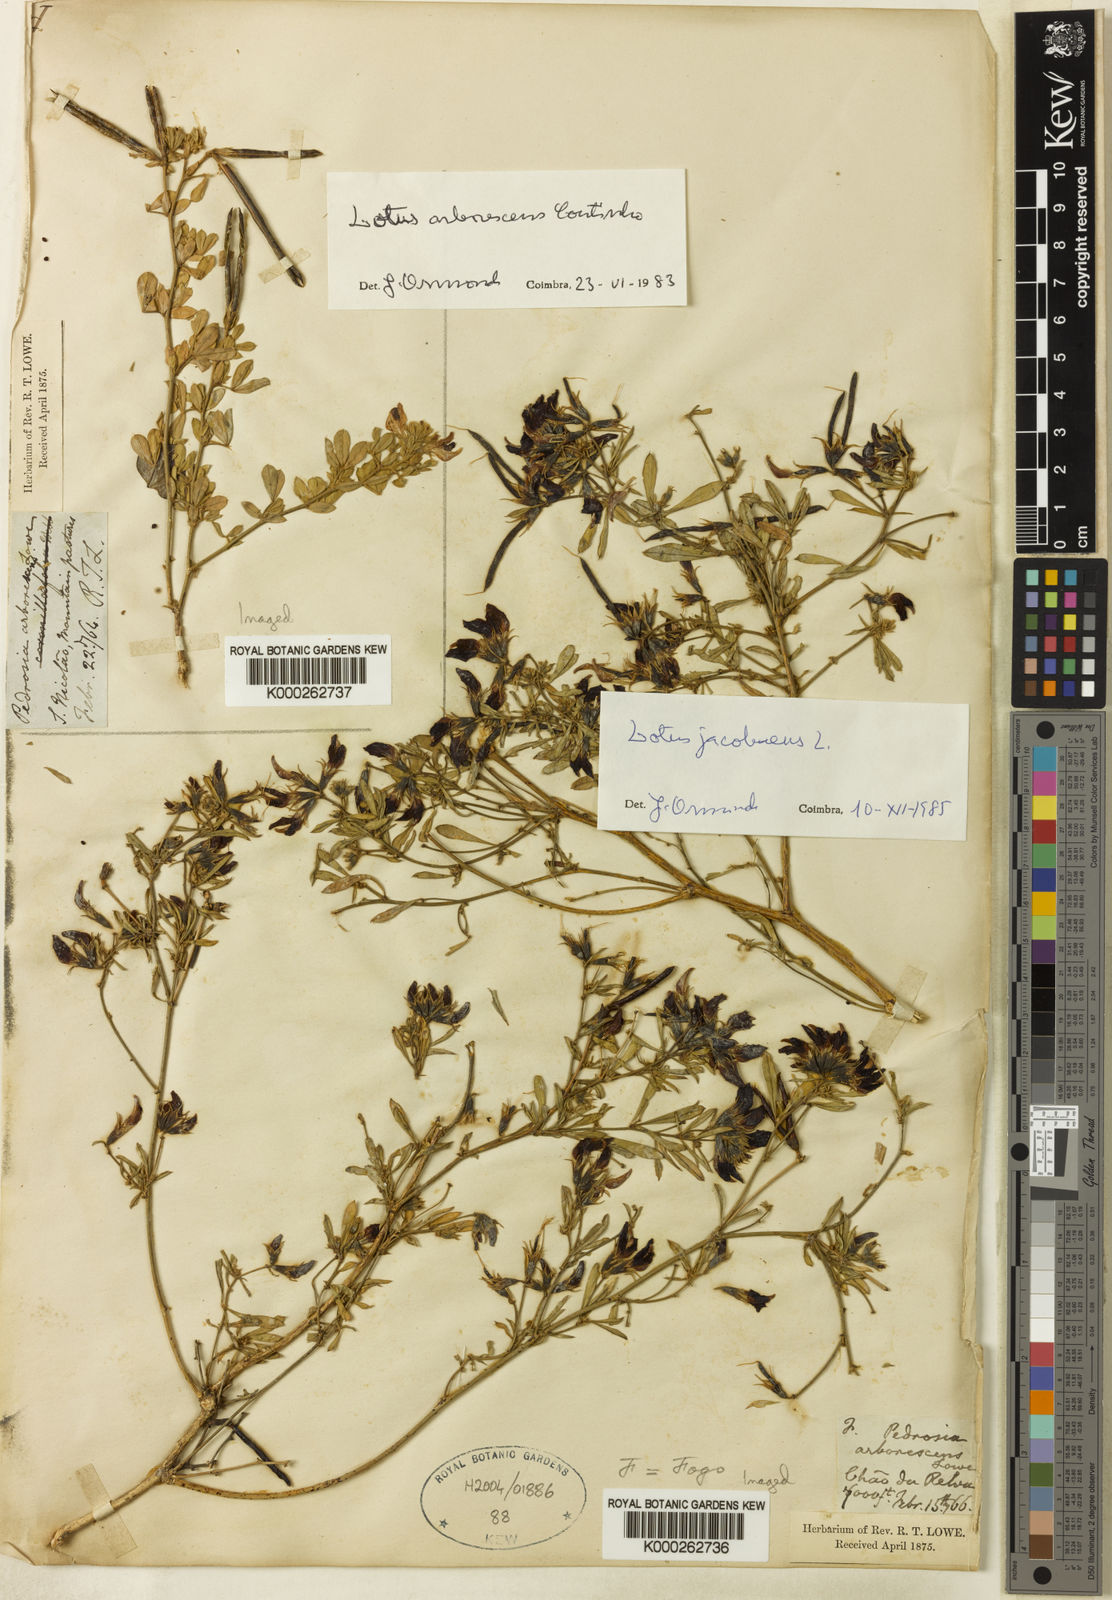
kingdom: Plantae
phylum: Tracheophyta
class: Magnoliopsida
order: Fabales
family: Fabaceae
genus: Lotus
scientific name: Lotus jacobaeus
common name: St. james's trefoil
